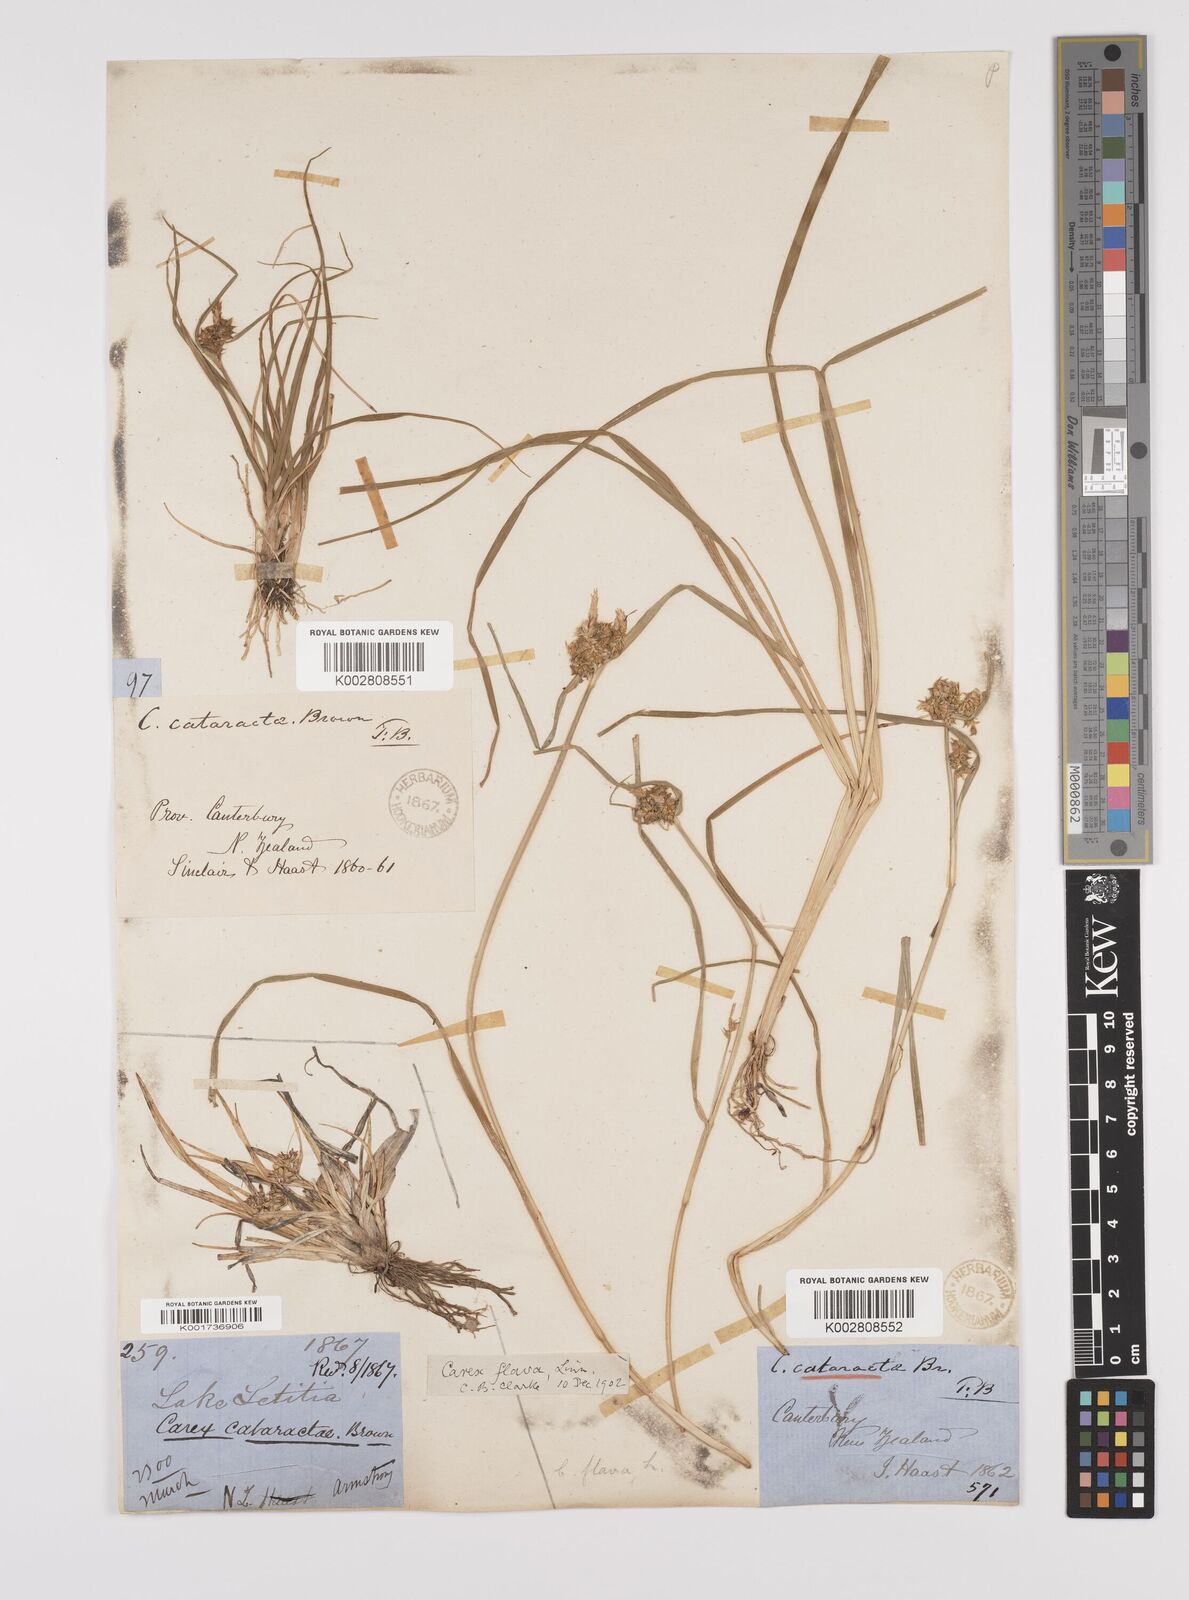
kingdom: Plantae
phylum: Tracheophyta
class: Liliopsida
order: Poales
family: Cyperaceae
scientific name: Cyperaceae
